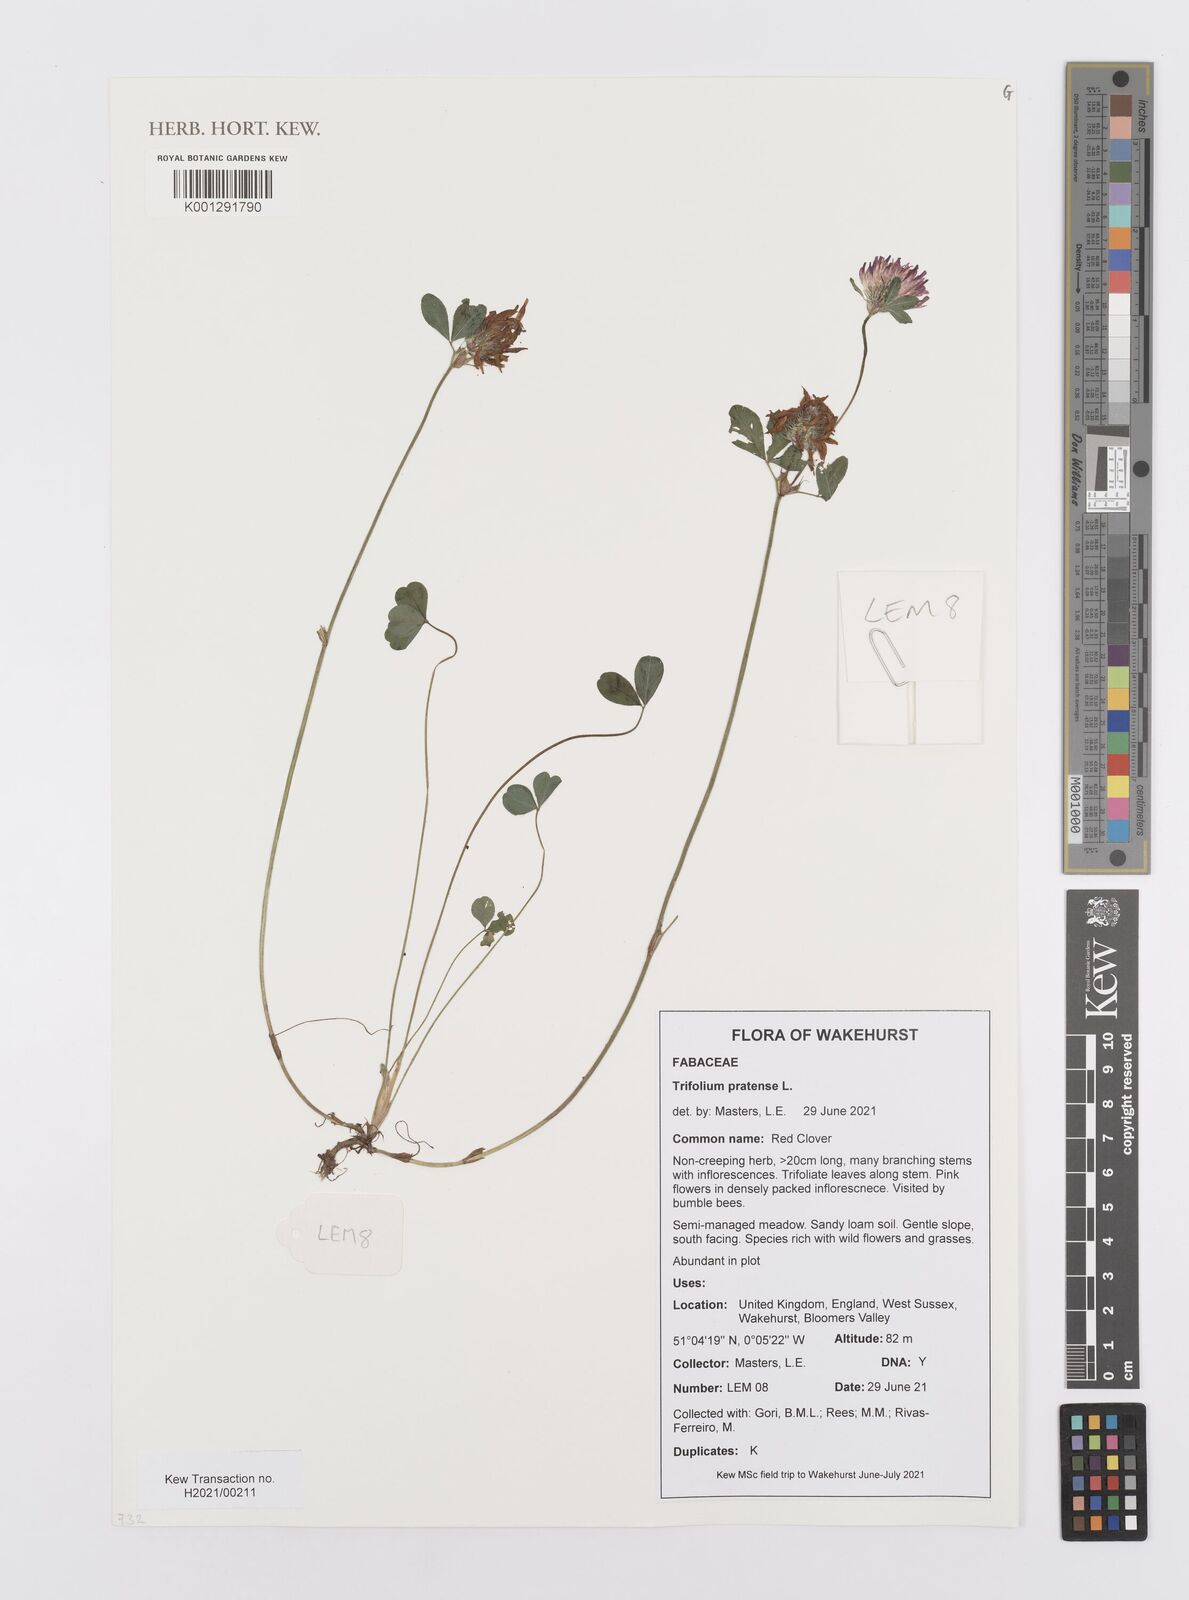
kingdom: Plantae
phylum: Tracheophyta
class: Magnoliopsida
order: Fabales
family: Fabaceae
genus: Trifolium
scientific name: Trifolium pratense
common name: Red clover
